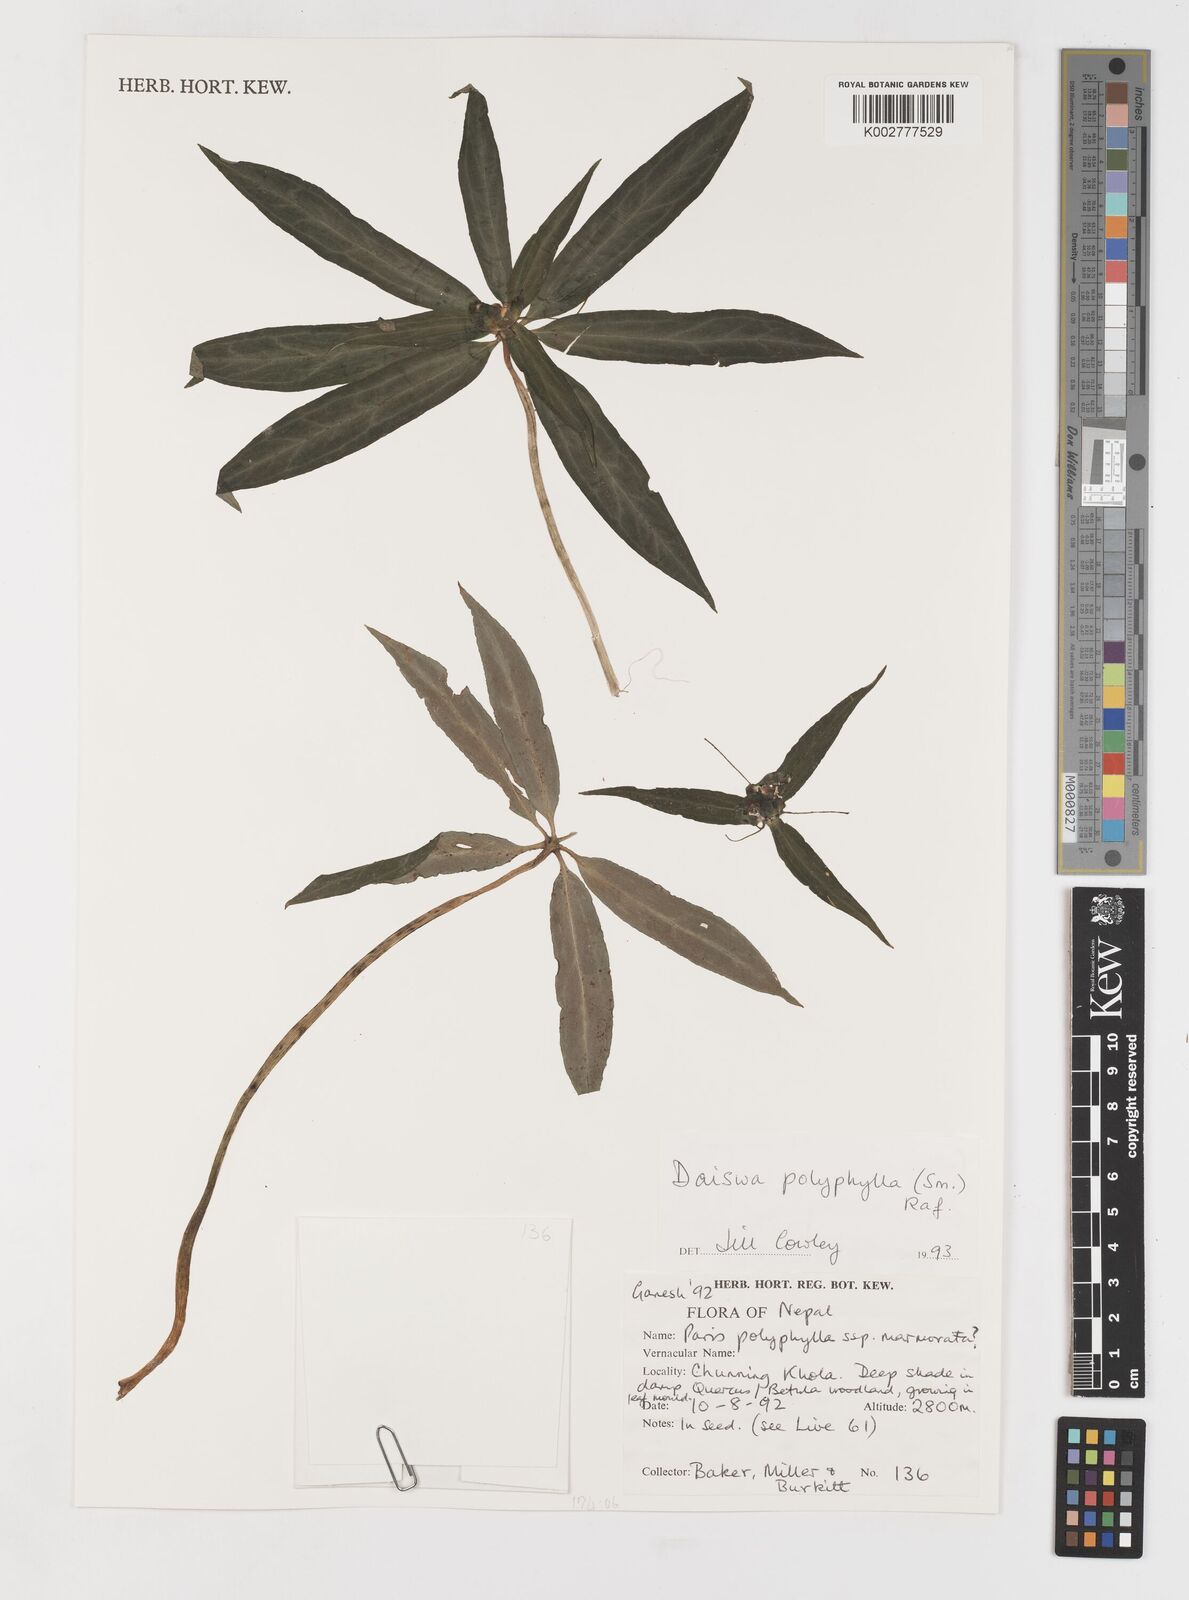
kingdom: Plantae
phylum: Tracheophyta
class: Liliopsida
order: Liliales
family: Melanthiaceae
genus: Paris
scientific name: Paris polyphylla
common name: Love apple
